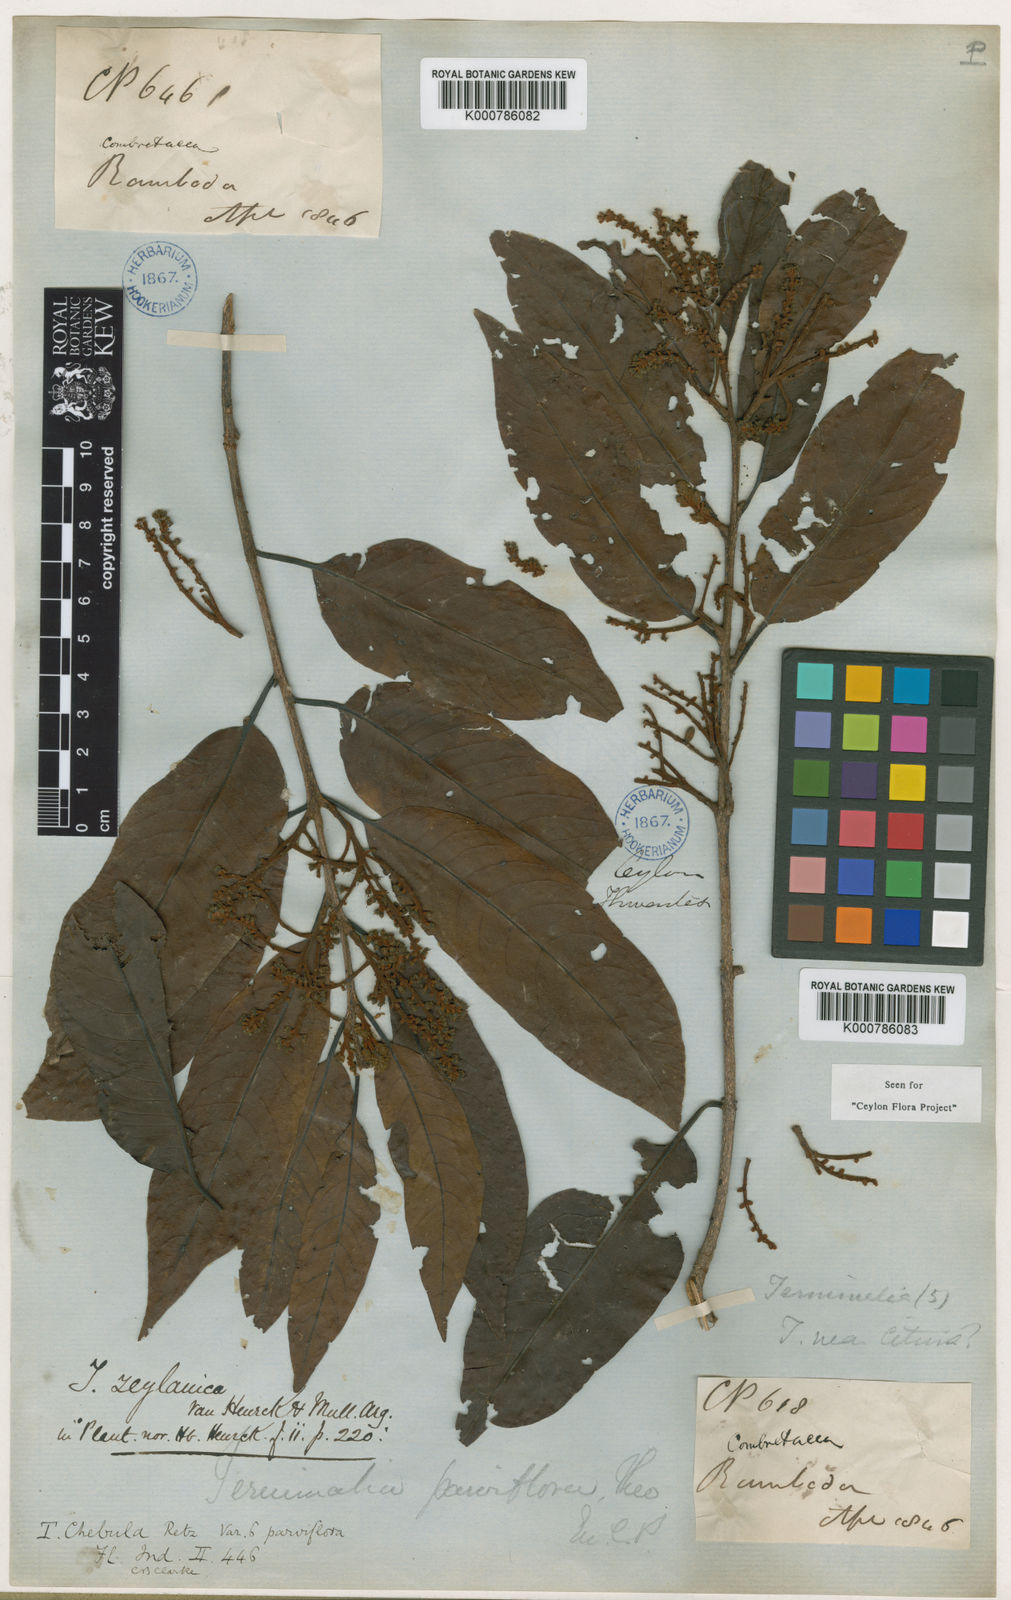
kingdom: Plantae
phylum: Tracheophyta
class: Magnoliopsida
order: Myrtales
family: Combretaceae
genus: Terminalia
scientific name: Terminalia
